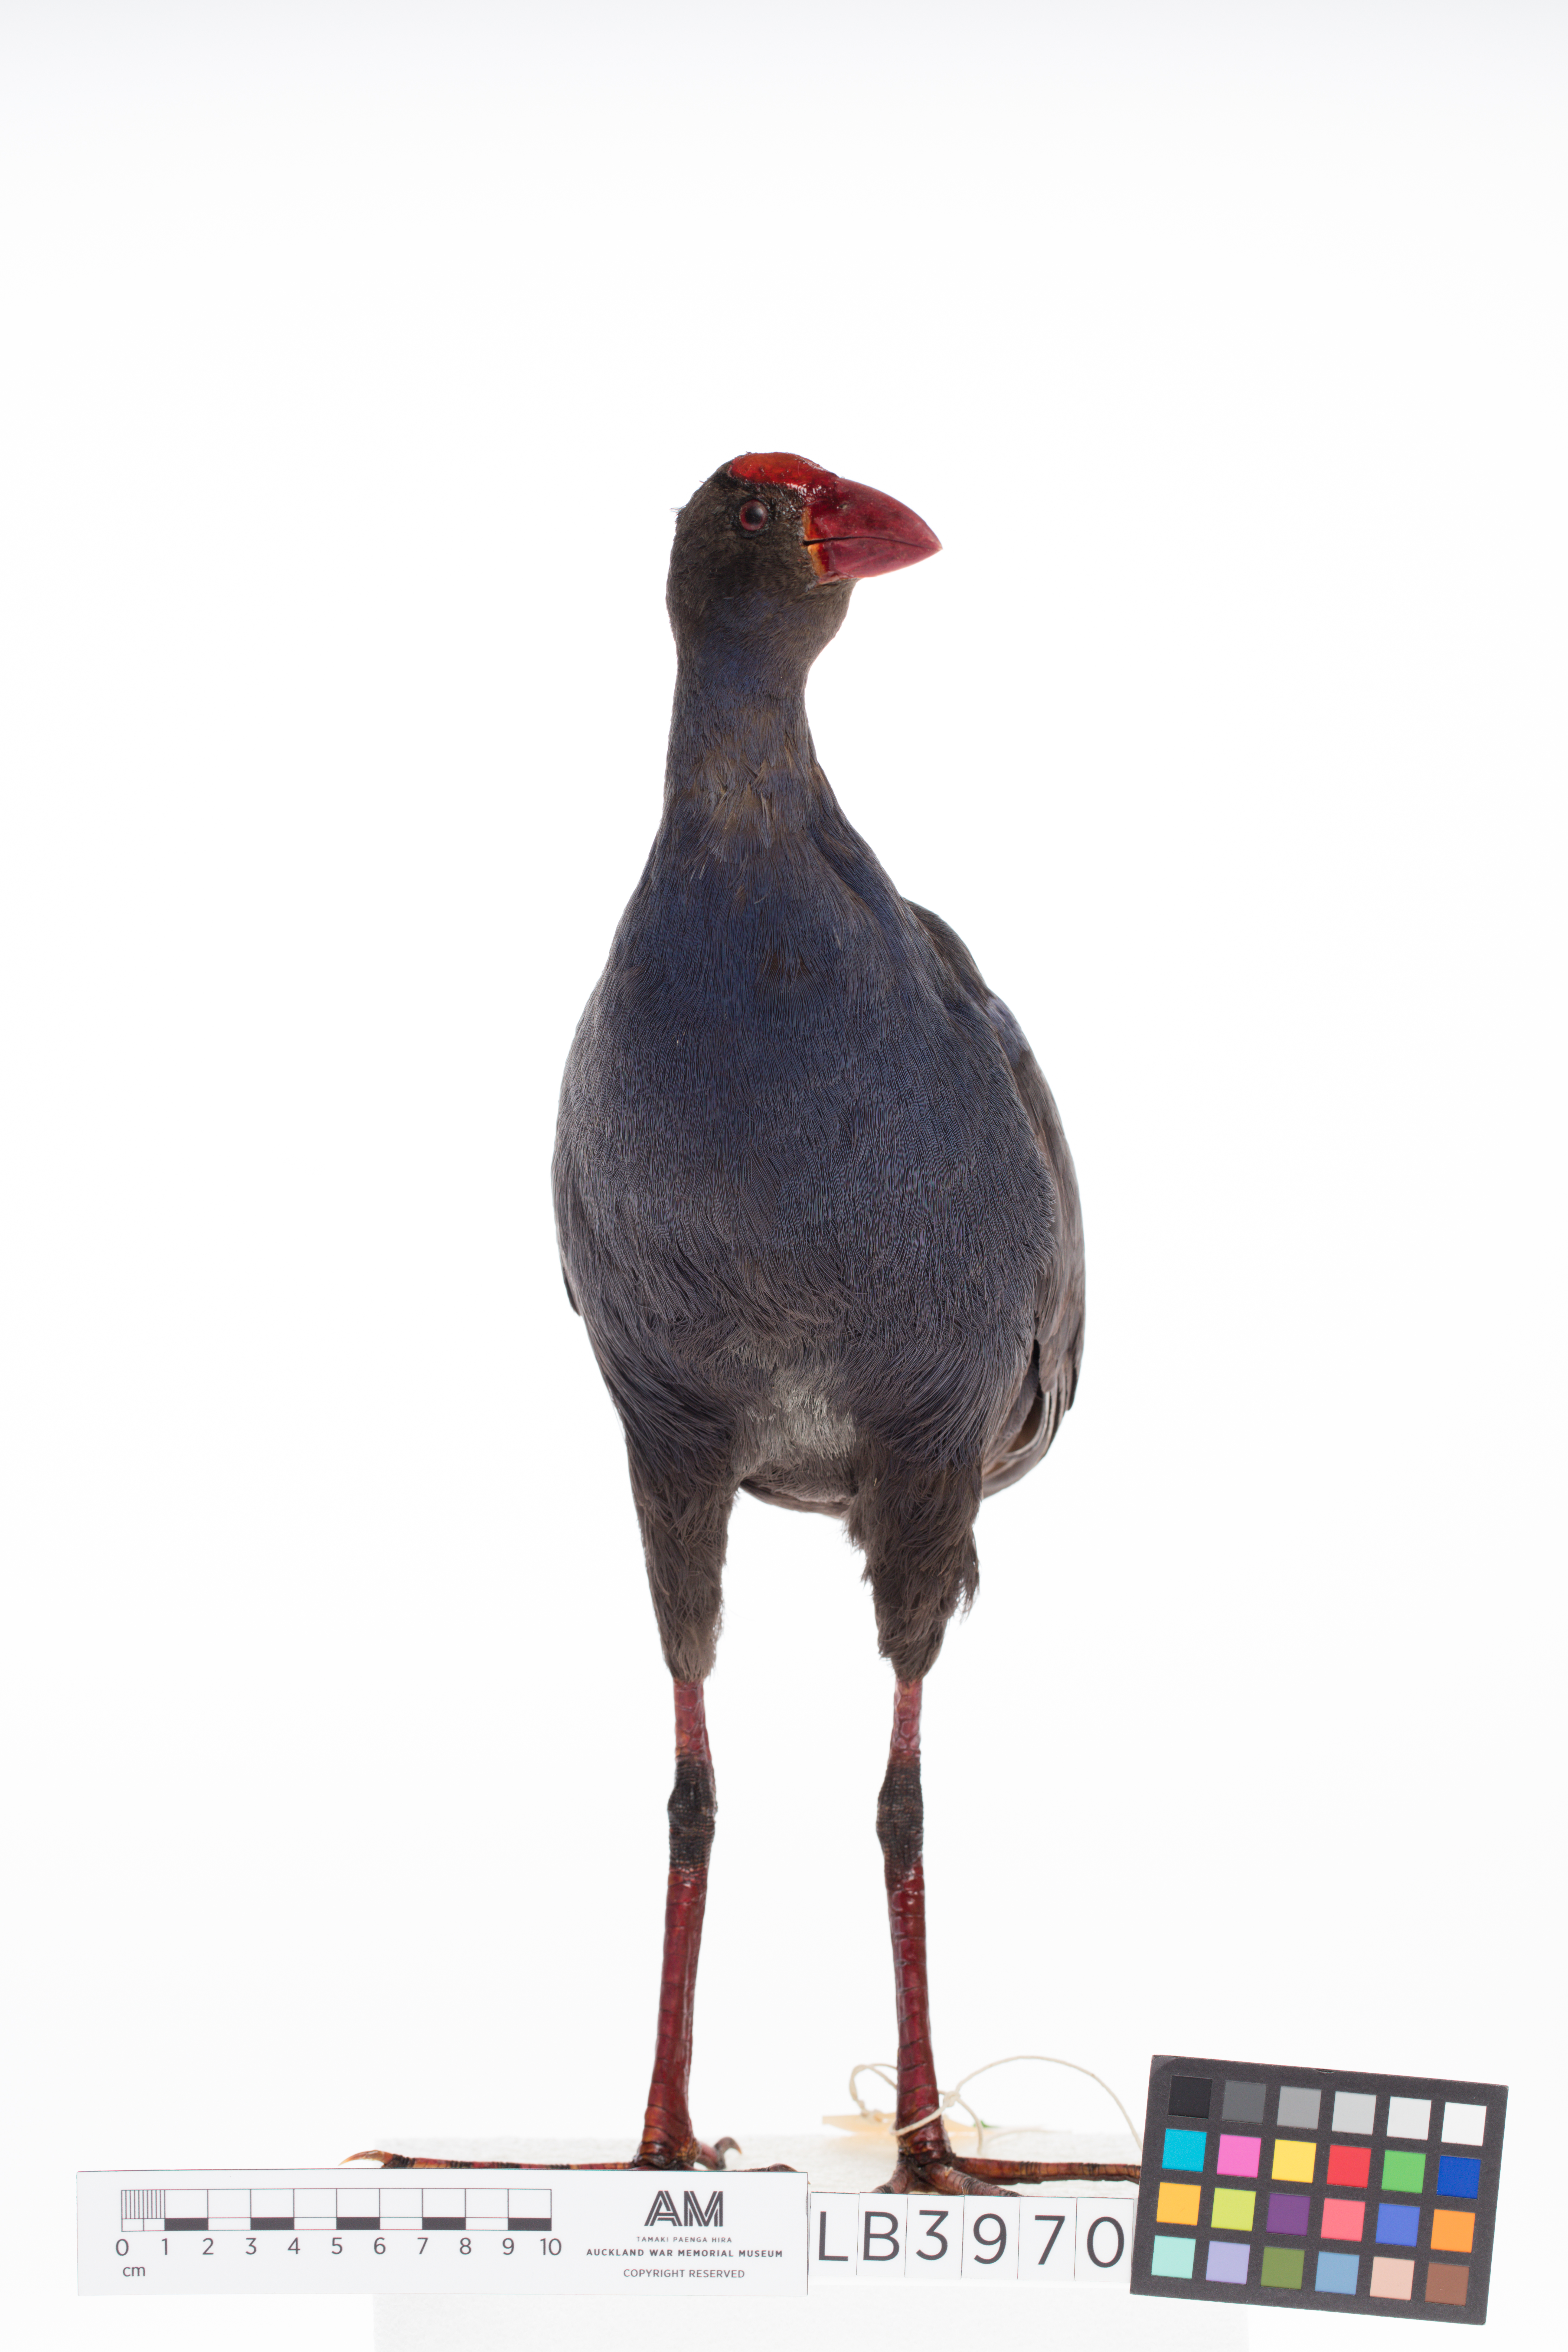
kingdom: Animalia
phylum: Chordata
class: Aves
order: Gruiformes
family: Rallidae
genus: Porphyrio
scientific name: Porphyrio melanotus
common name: Australasian swamphen
